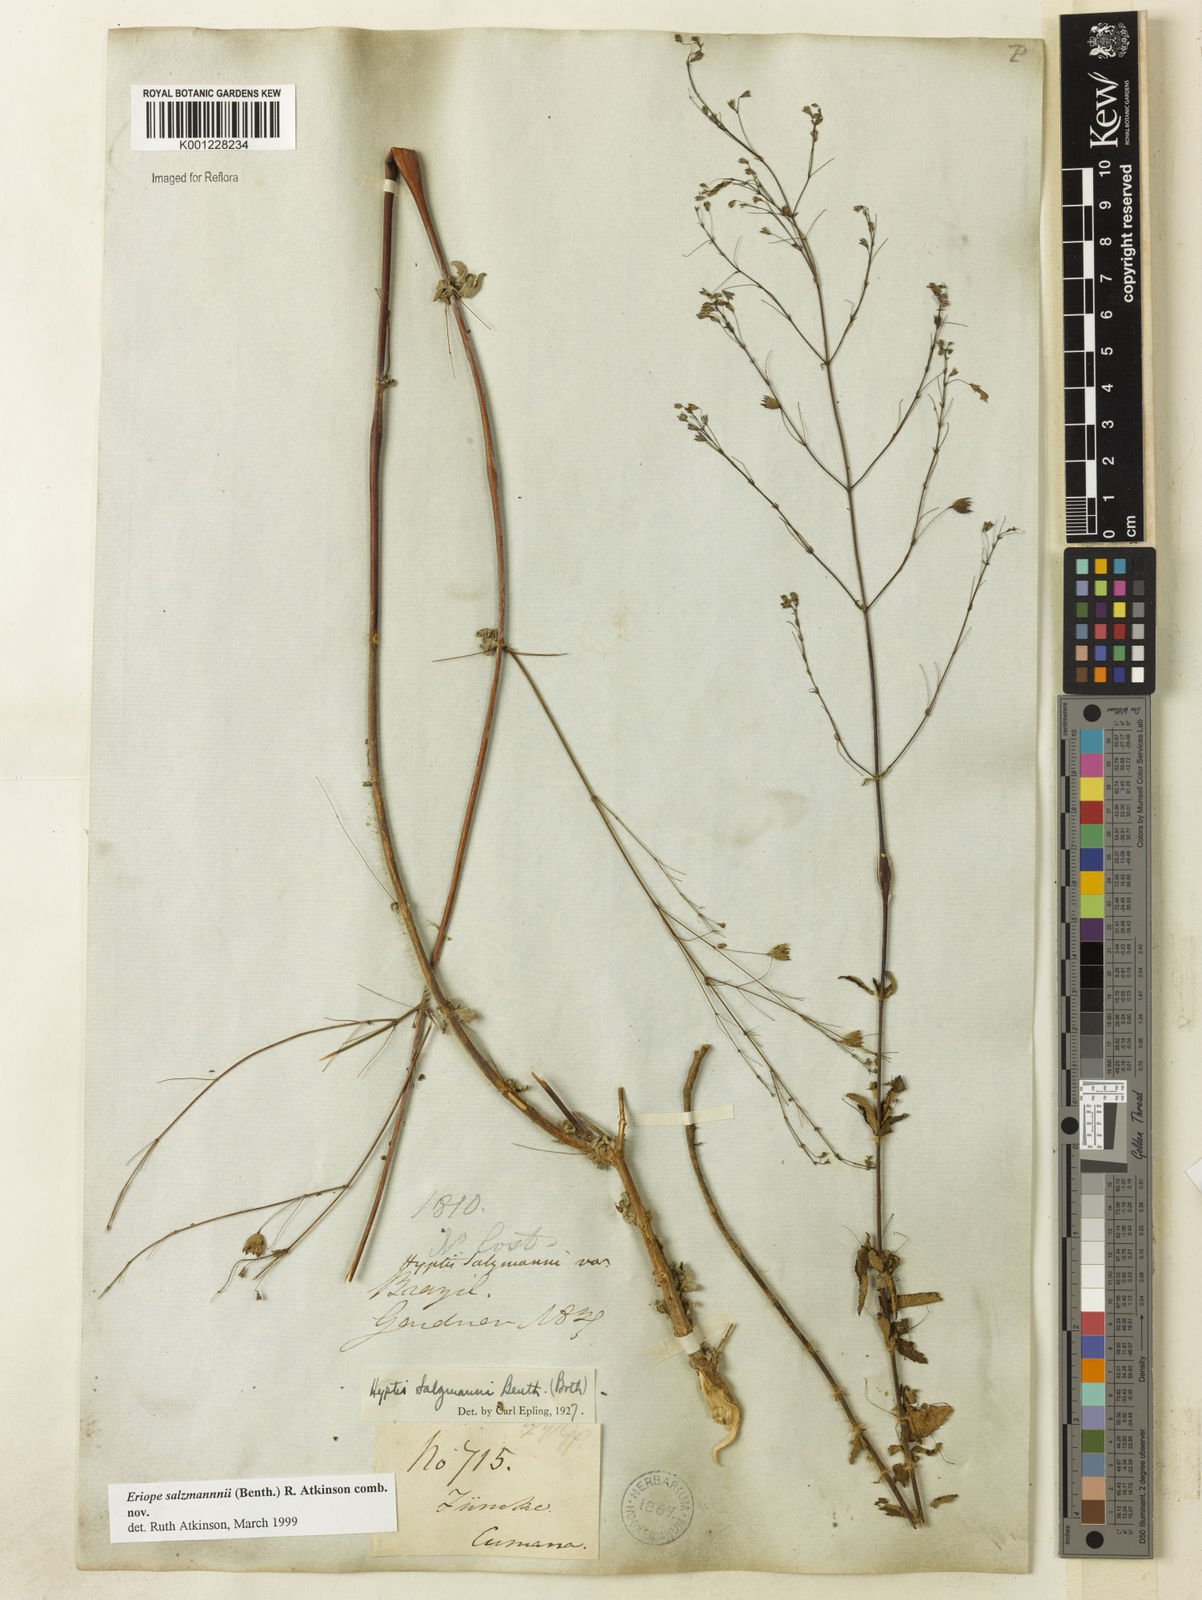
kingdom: Plantae
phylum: Tracheophyta
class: Magnoliopsida
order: Lamiales
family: Lamiaceae
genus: Hypenia
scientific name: Hypenia salzmannii
